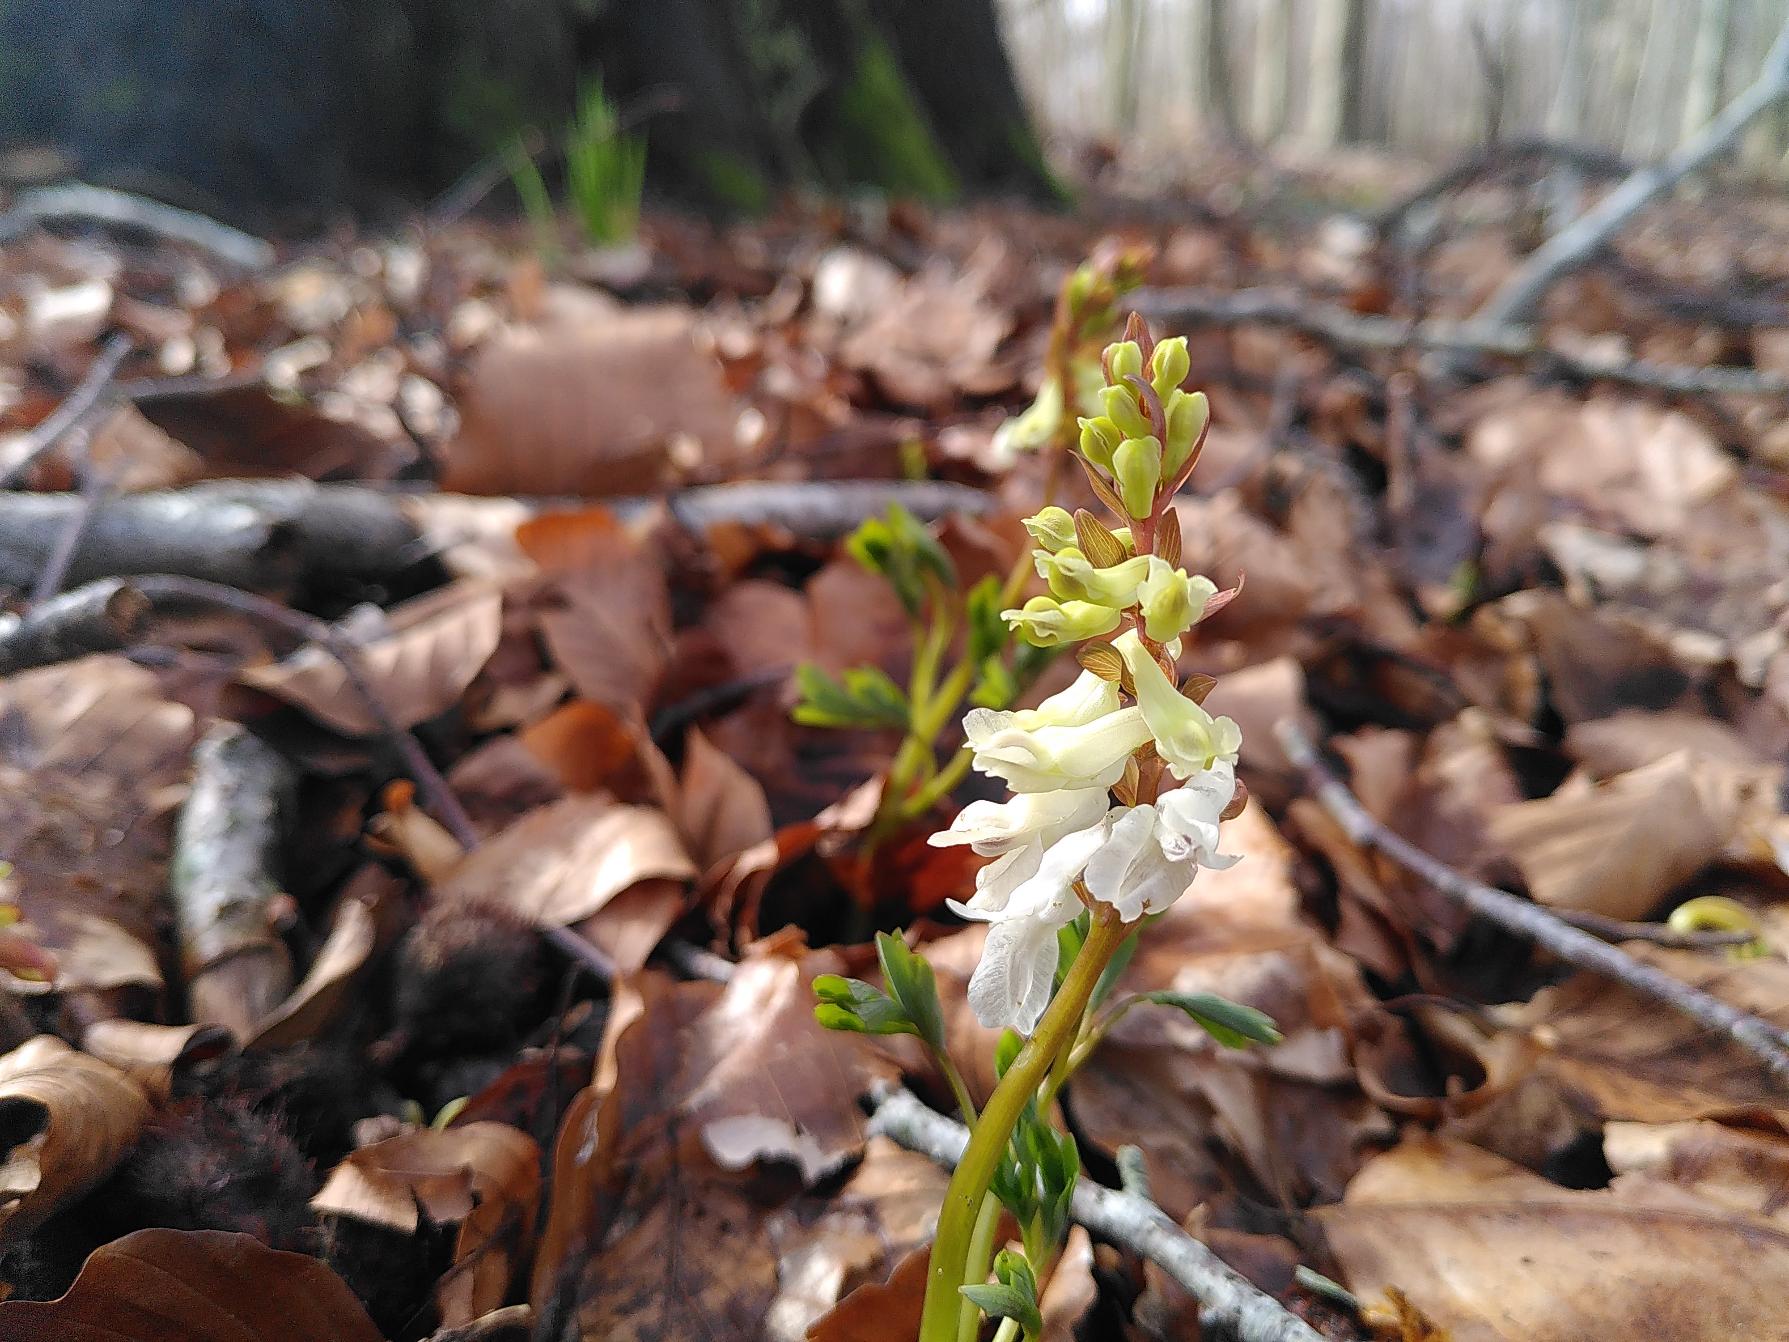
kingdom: Plantae
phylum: Tracheophyta
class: Magnoliopsida
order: Ranunculales
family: Papaveraceae
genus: Corydalis
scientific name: Corydalis cava
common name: Hulrodet lærkespore
